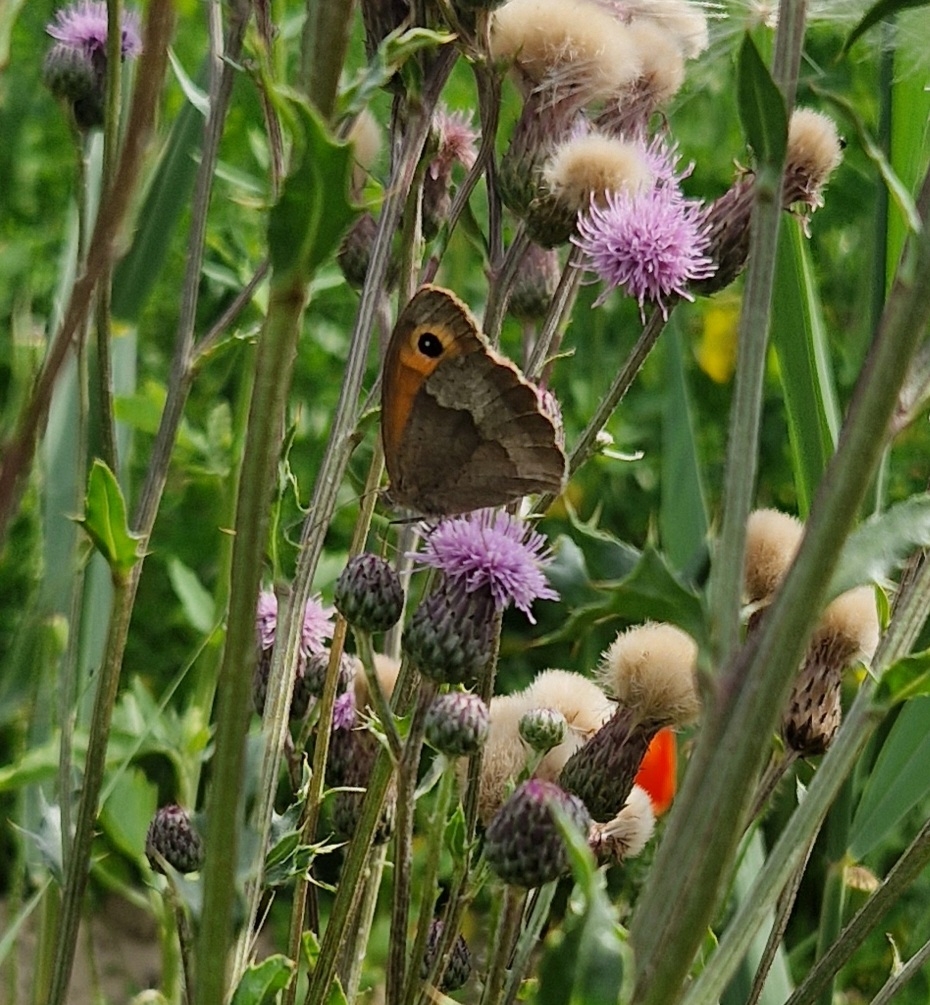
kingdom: Animalia
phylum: Arthropoda
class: Insecta
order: Lepidoptera
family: Nymphalidae
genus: Maniola
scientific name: Maniola jurtina
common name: Græsrandøje
